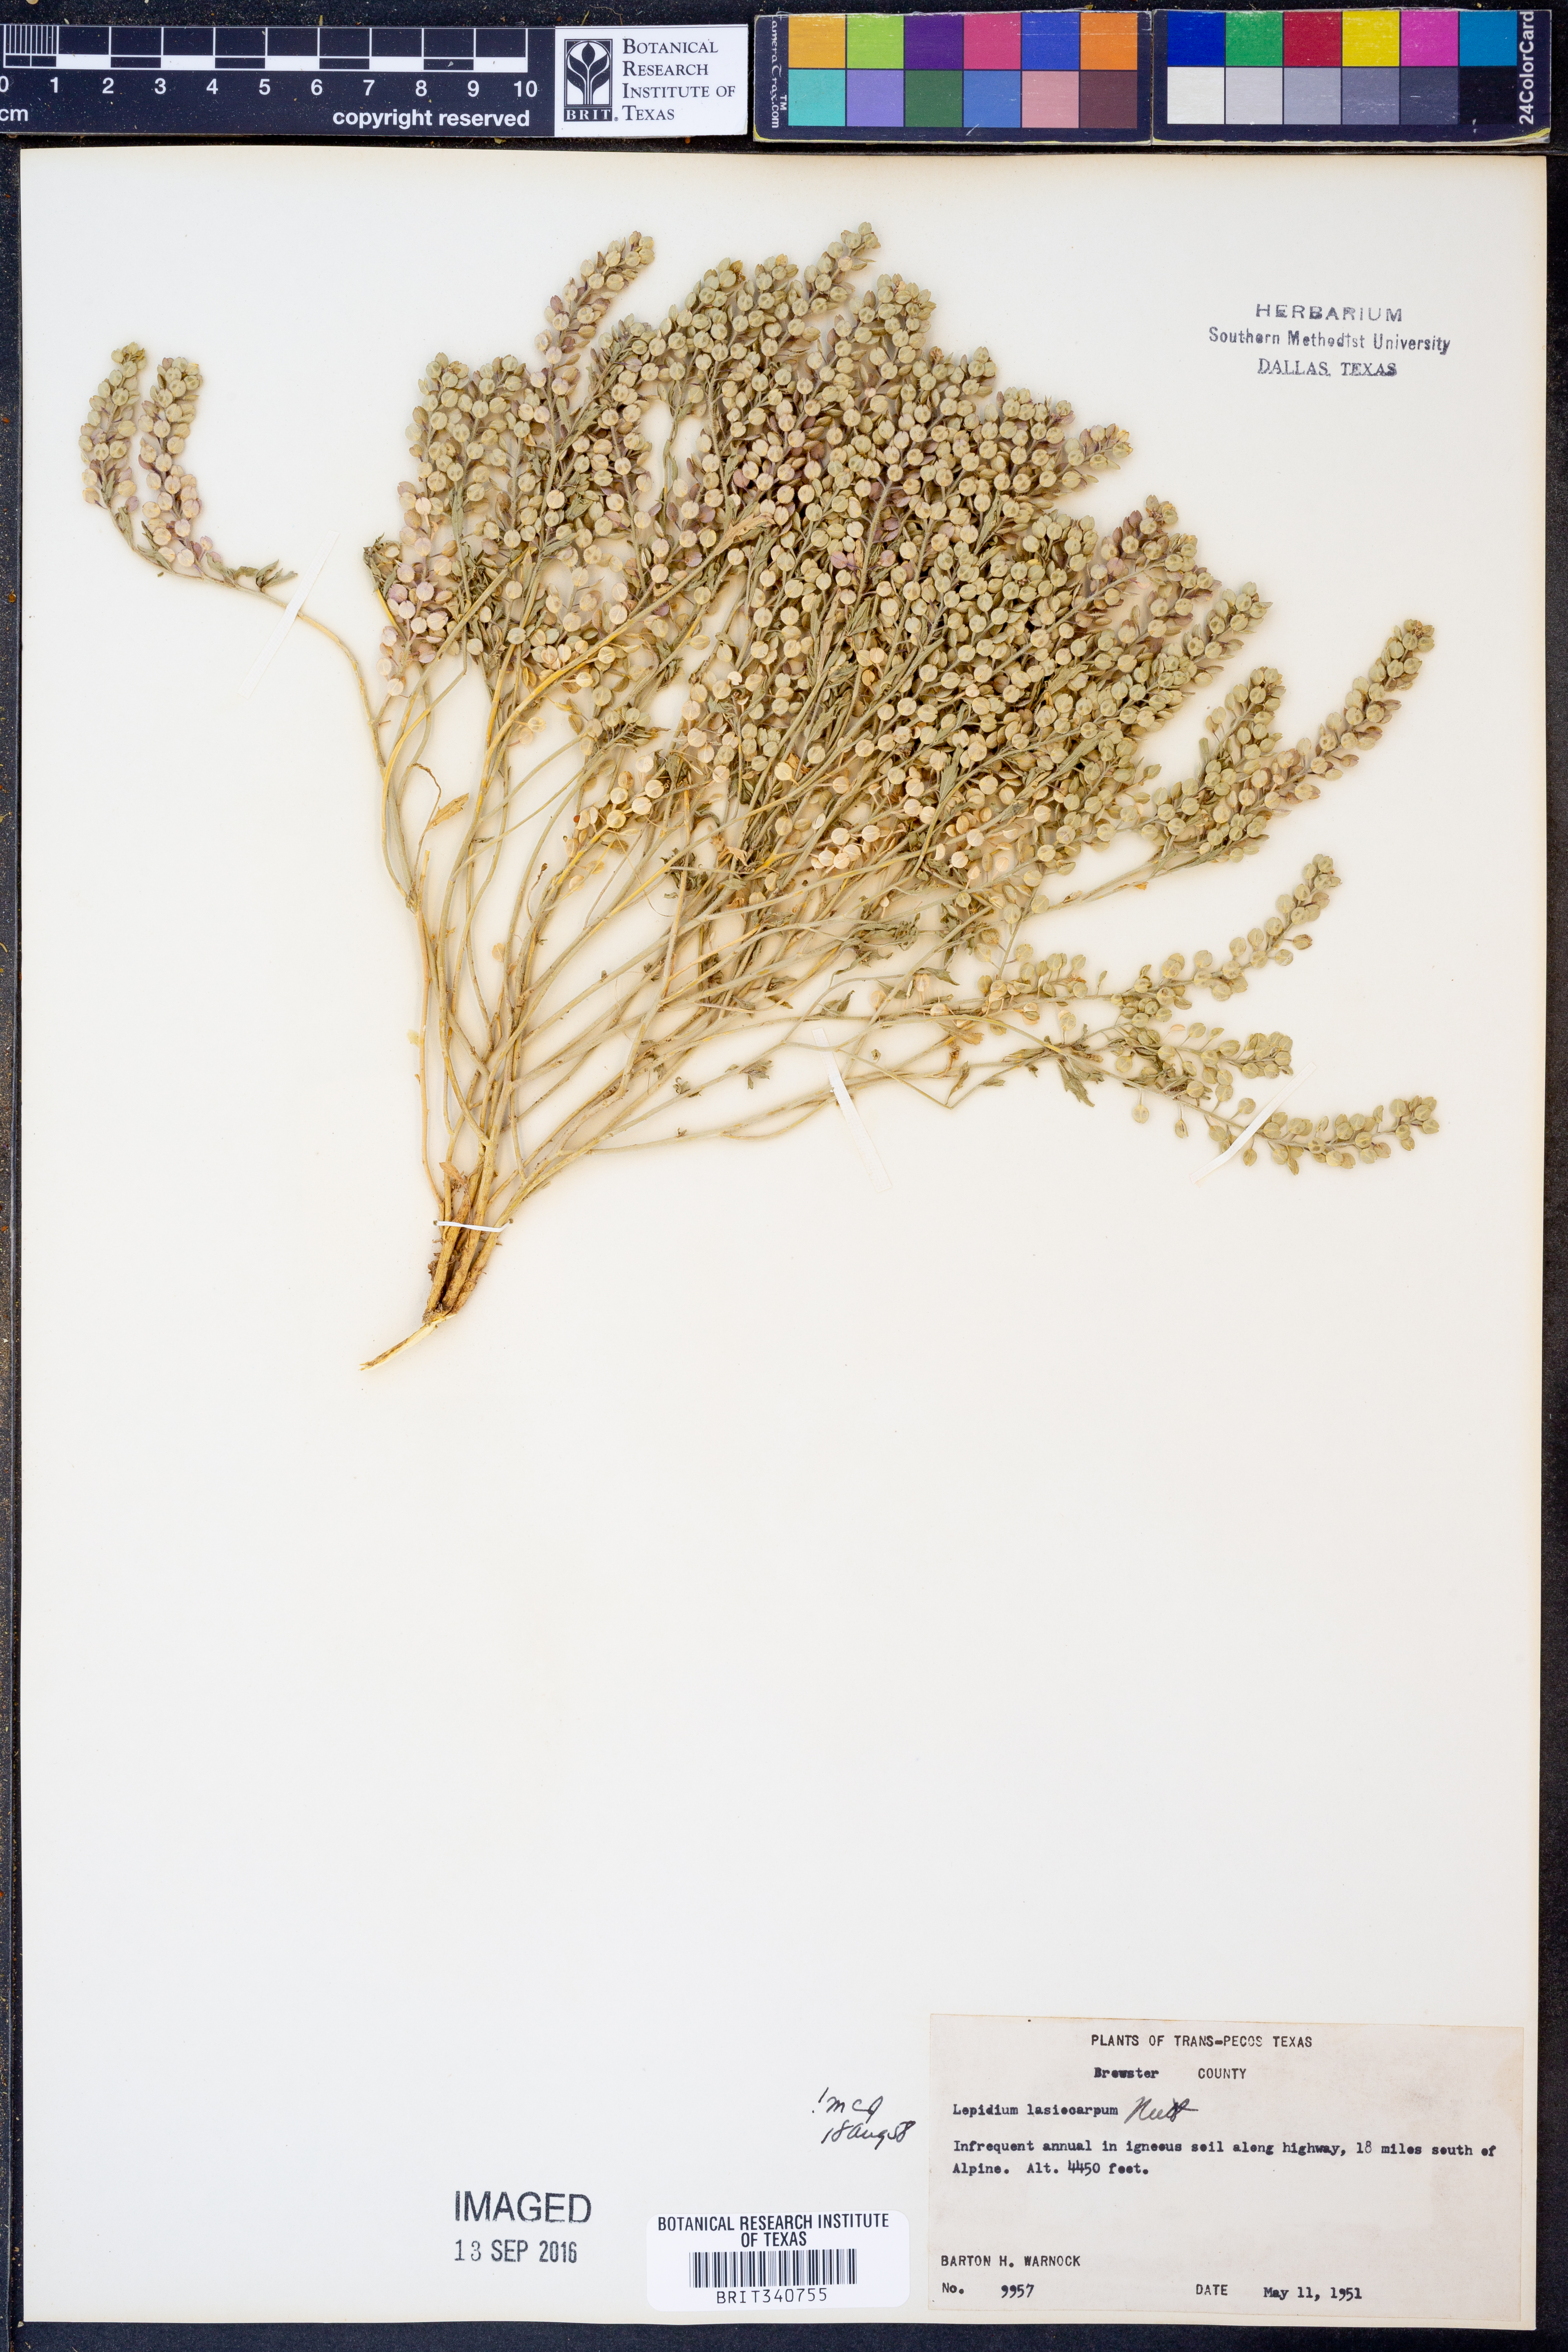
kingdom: Plantae
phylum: Tracheophyta
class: Magnoliopsida
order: Brassicales
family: Brassicaceae
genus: Lepidium
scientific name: Lepidium lasiocarpum
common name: Hairy-pod pepperwort
